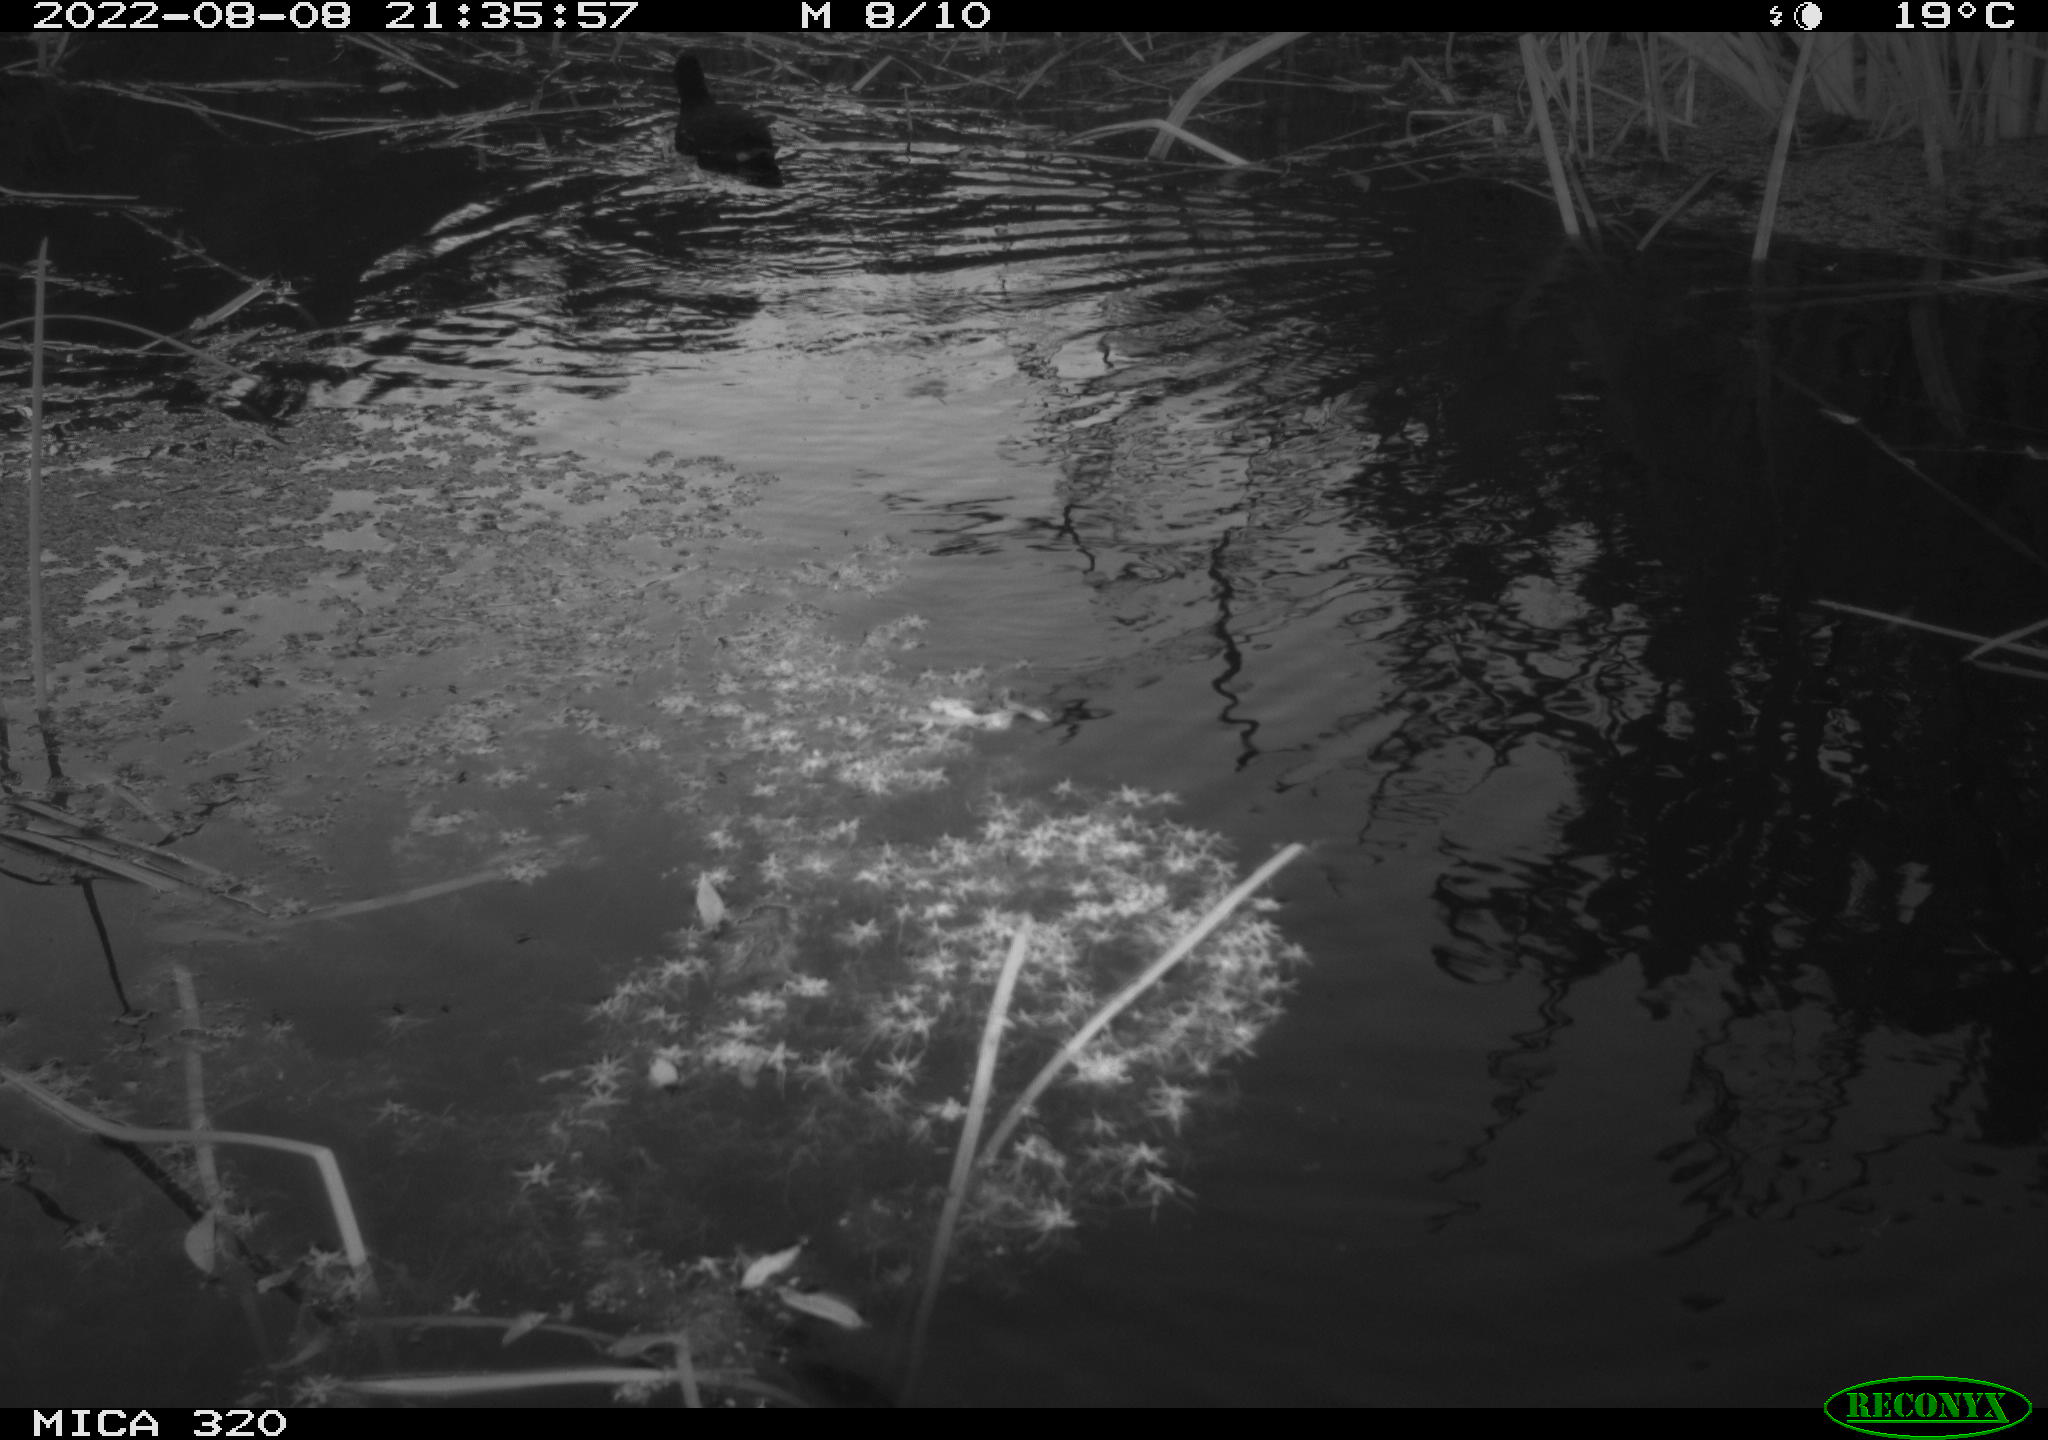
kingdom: Animalia
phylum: Chordata
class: Aves
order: Gruiformes
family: Rallidae
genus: Gallinula
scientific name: Gallinula chloropus
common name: Common moorhen
